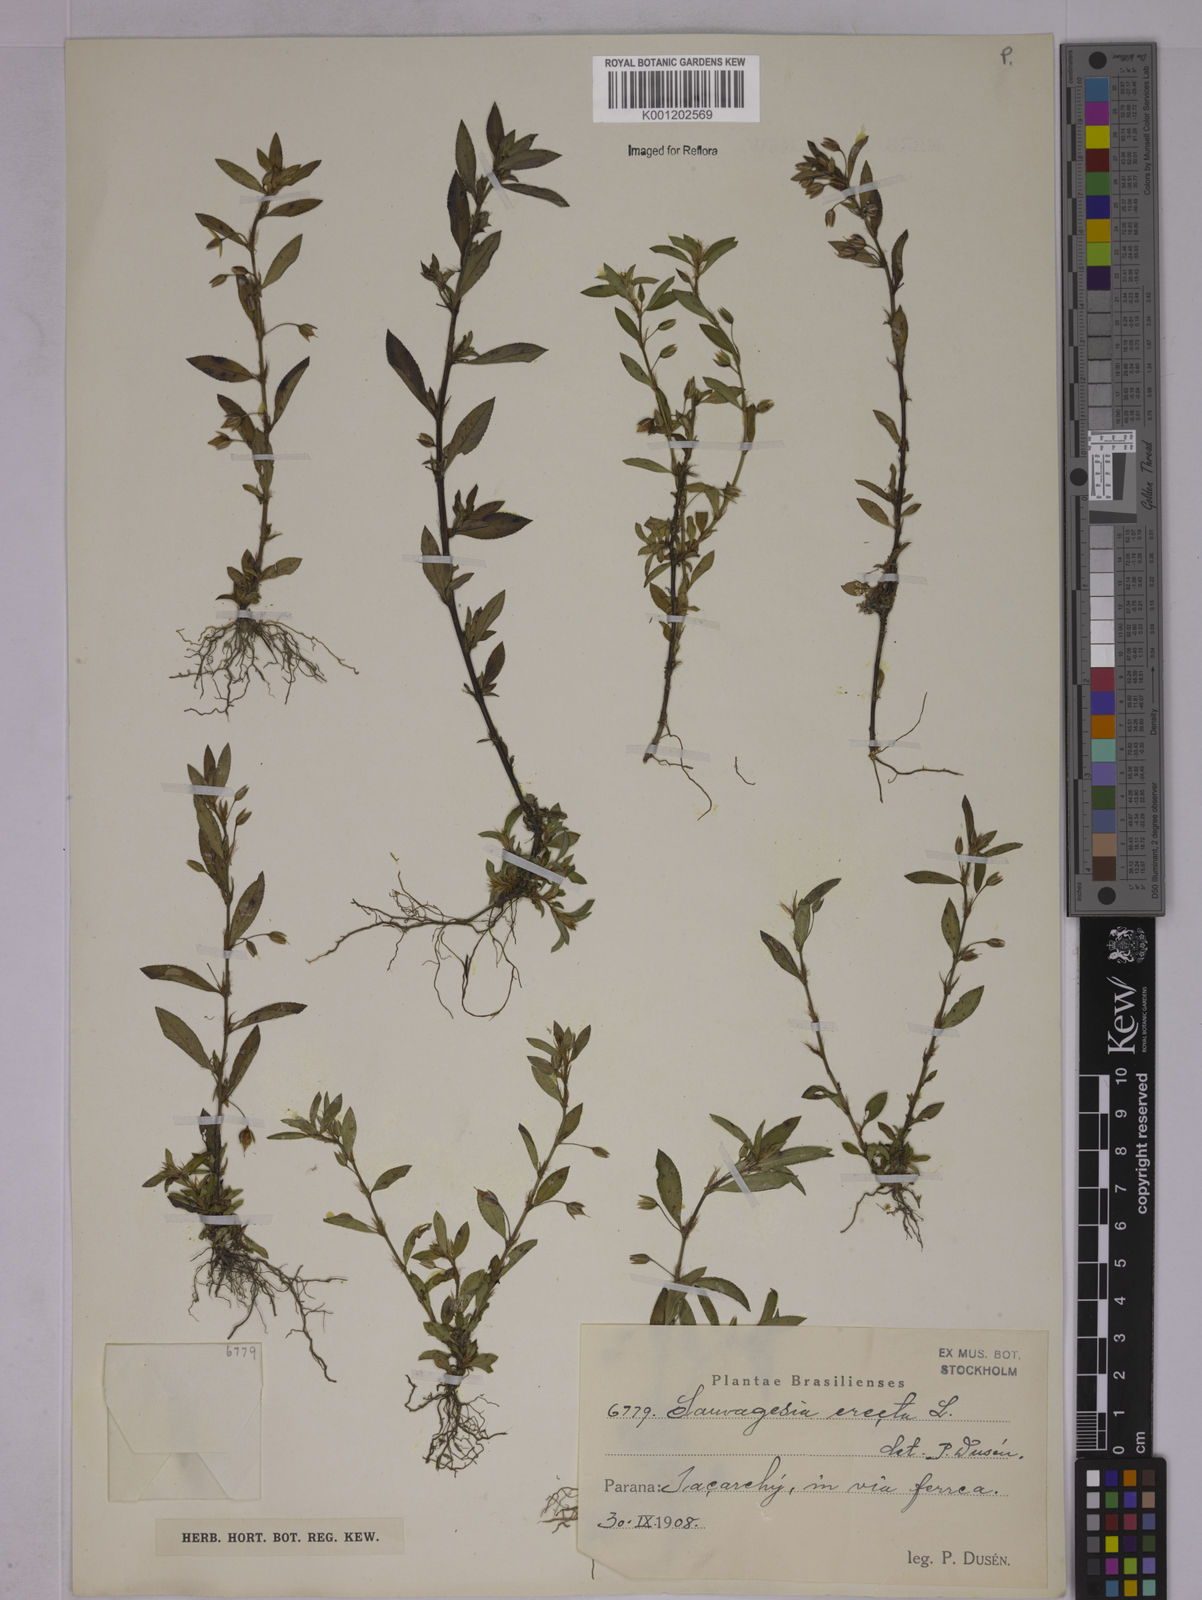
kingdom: Plantae
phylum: Tracheophyta
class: Magnoliopsida
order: Malpighiales
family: Ochnaceae
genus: Sauvagesia
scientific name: Sauvagesia erecta
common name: Creole tea
